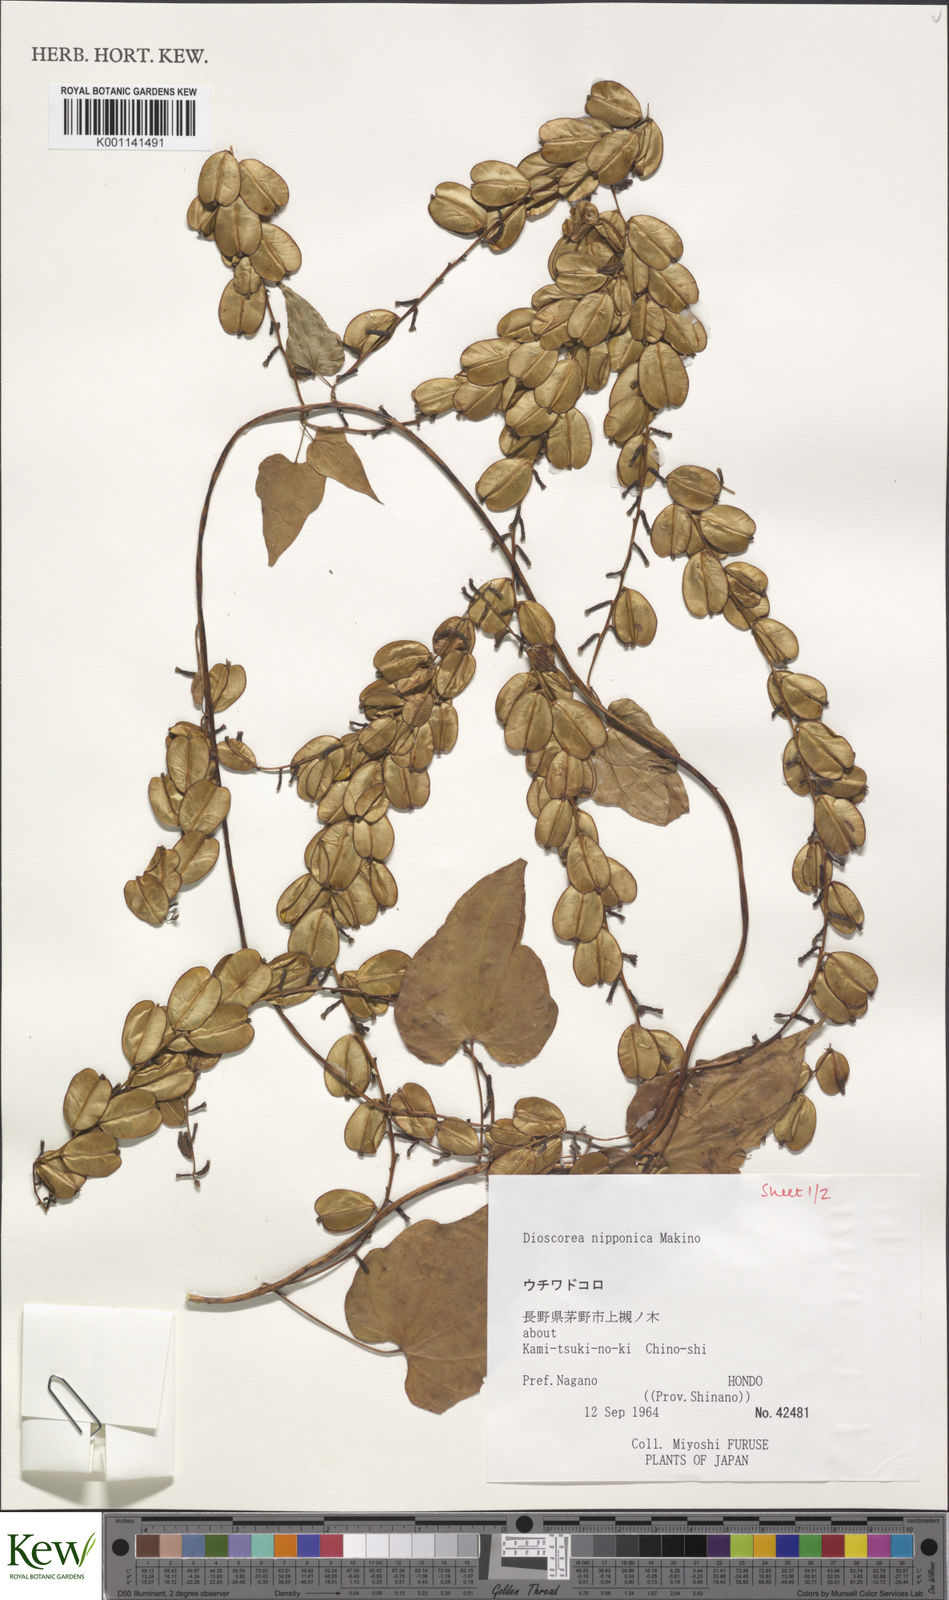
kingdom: Plantae
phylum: Tracheophyta
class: Liliopsida
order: Dioscoreales
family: Dioscoreaceae
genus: Dioscorea
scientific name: Dioscorea nipponica
